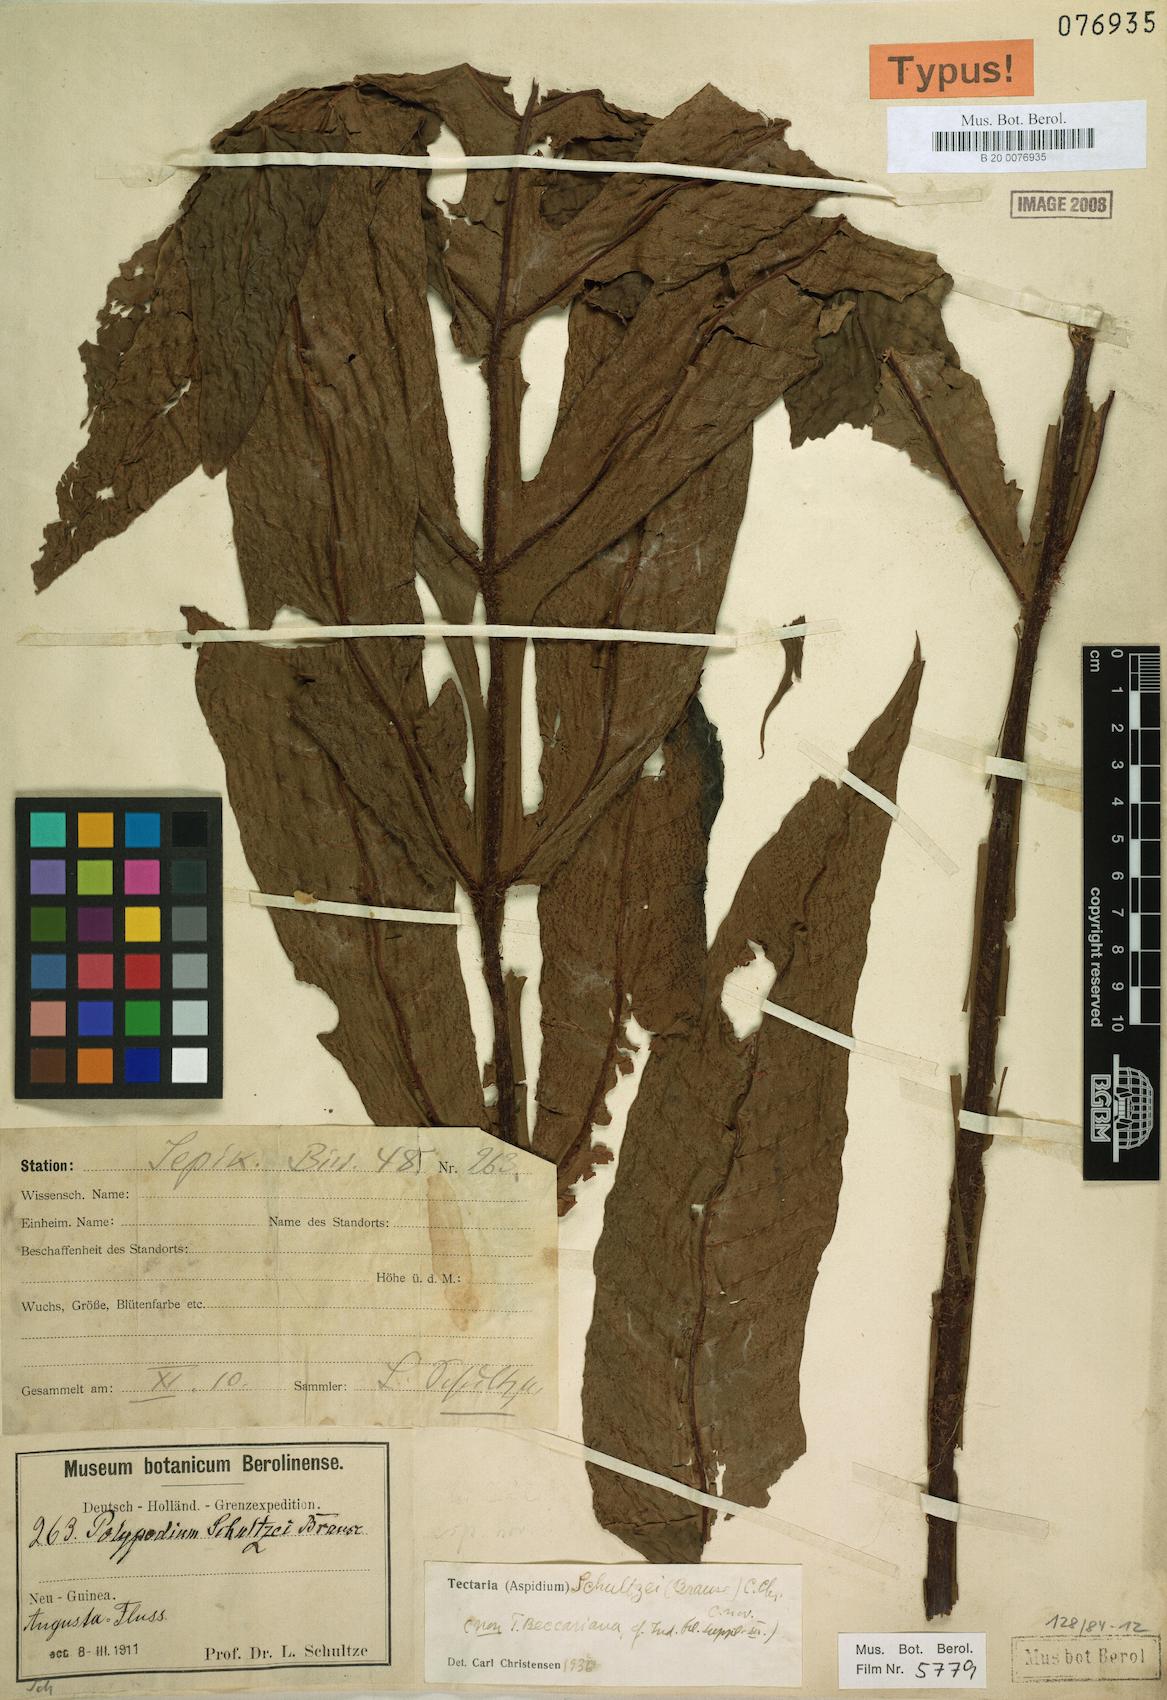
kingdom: Plantae
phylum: Tracheophyta
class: Magnoliopsida
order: Gentianales
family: Apocynaceae
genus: Ceropegia
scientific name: Ceropegia schultzei
